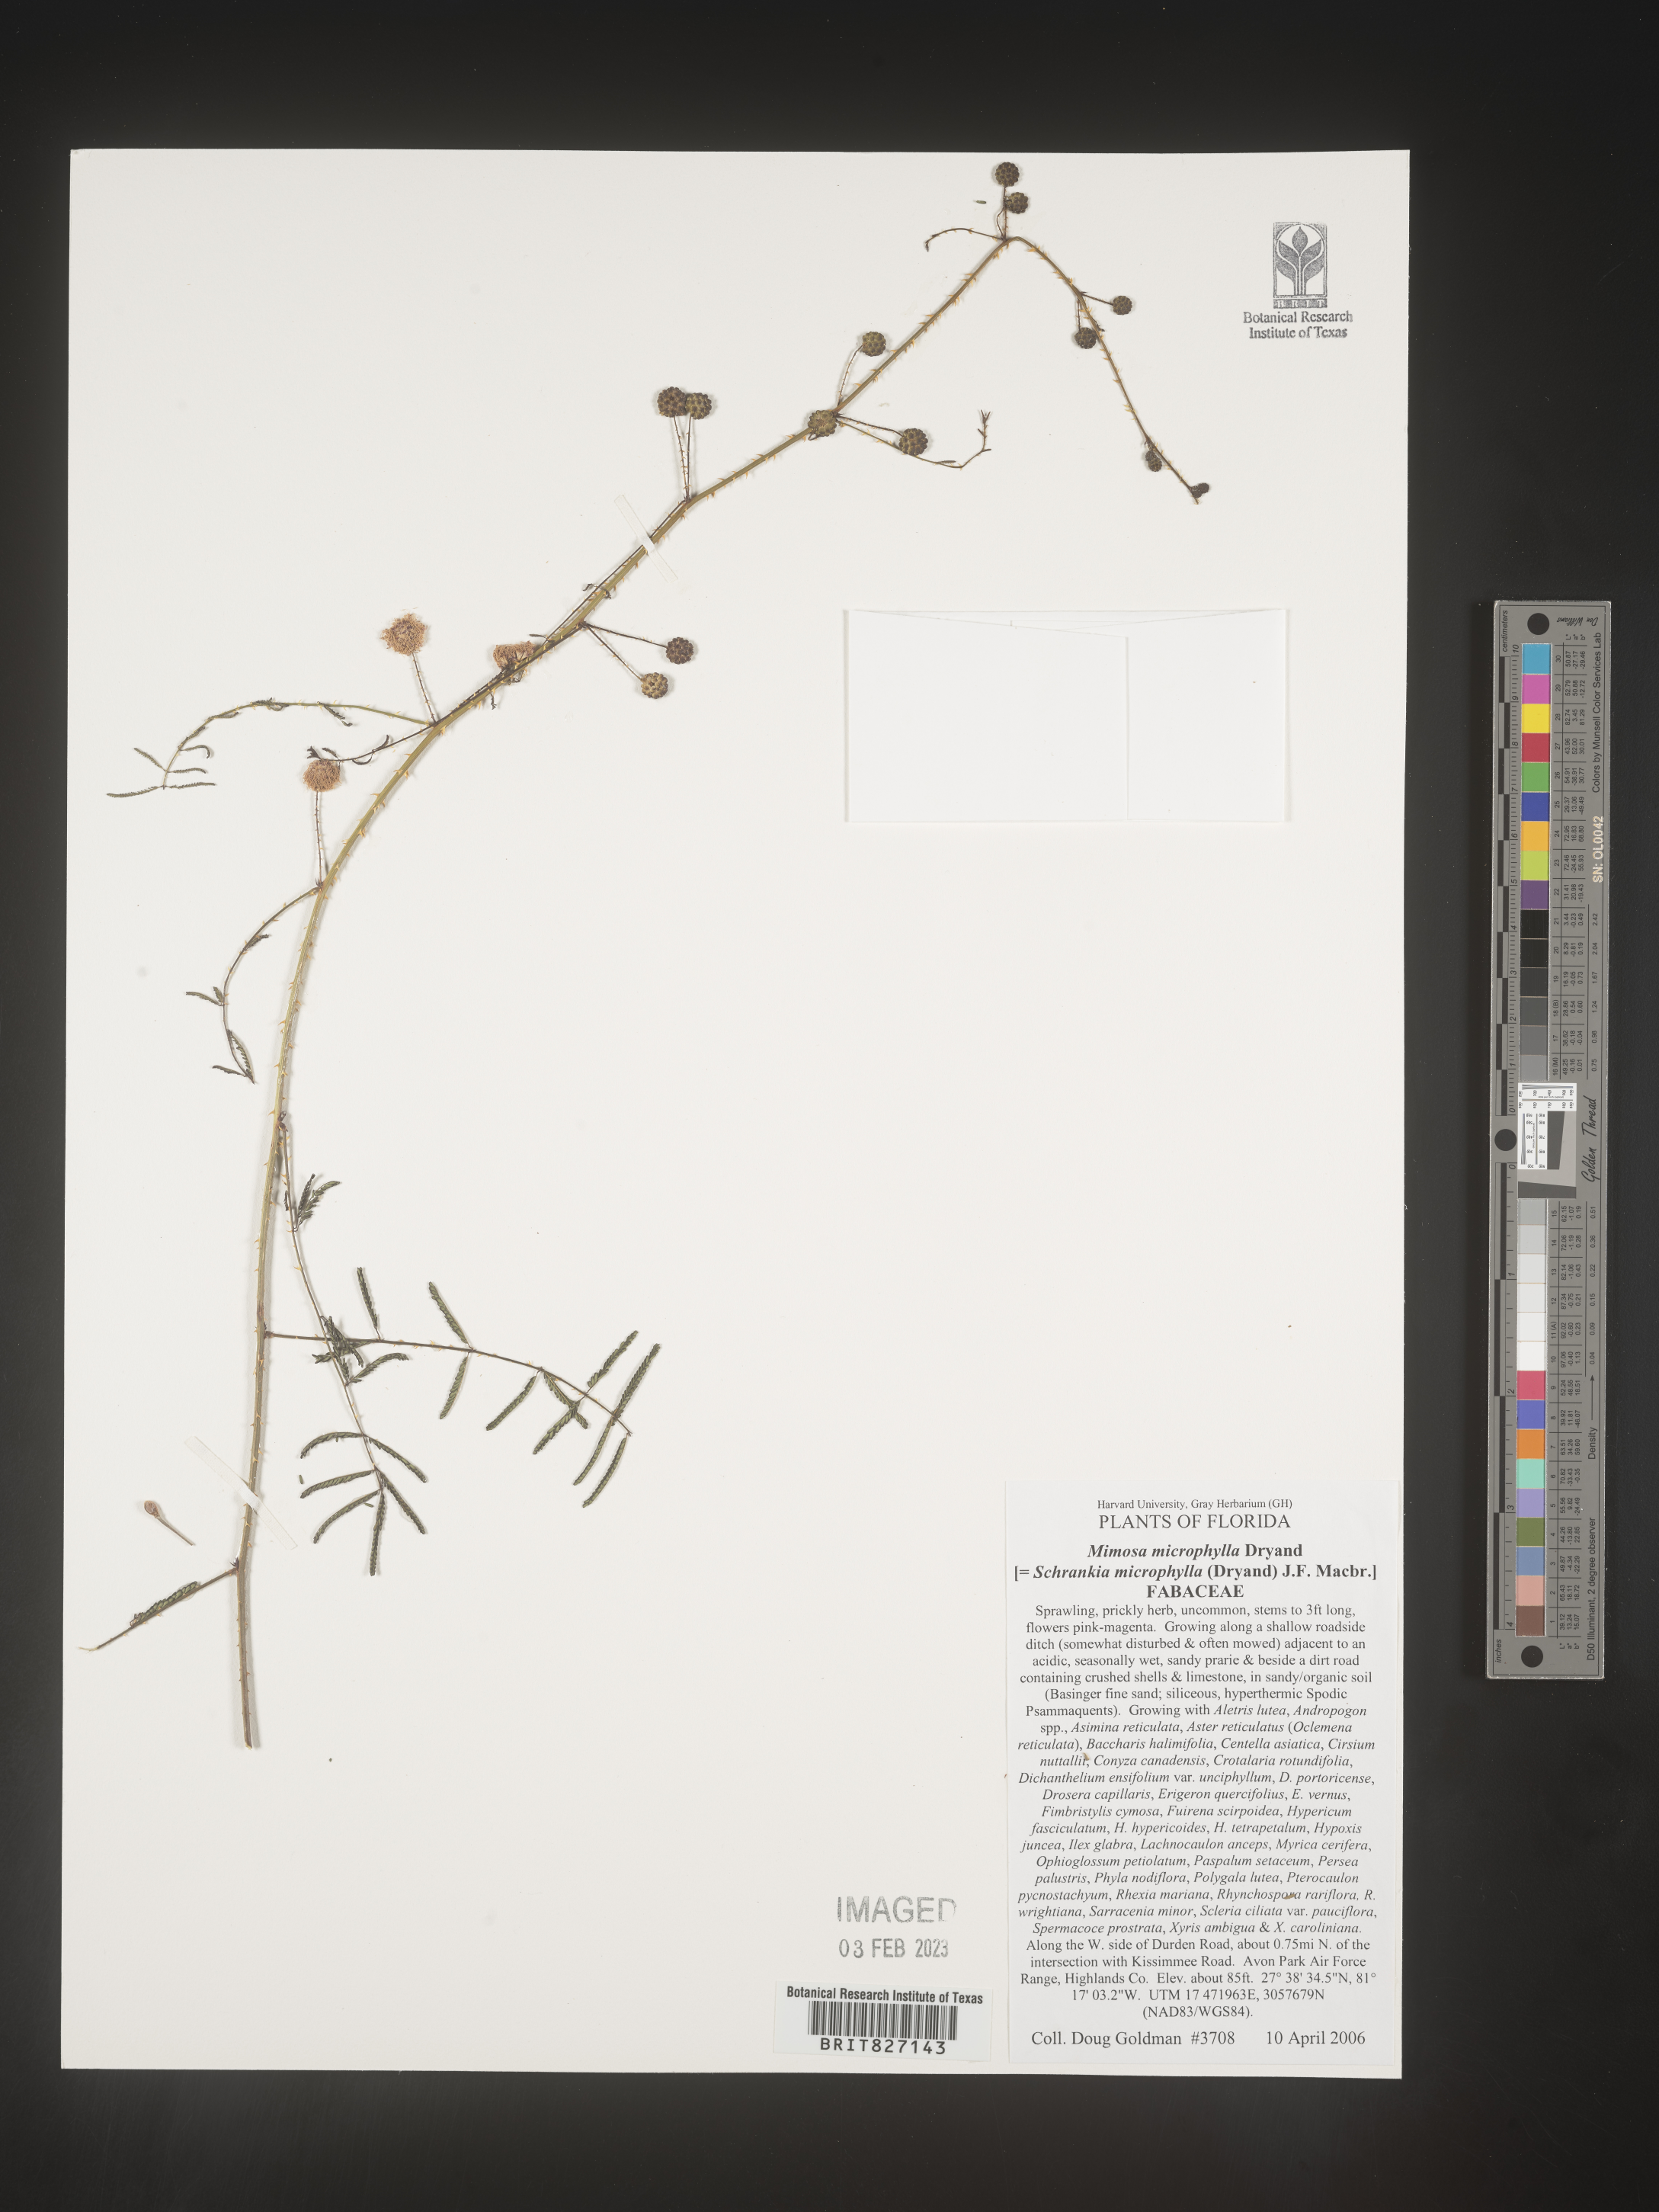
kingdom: Plantae
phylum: Tracheophyta
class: Magnoliopsida
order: Fabales
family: Fabaceae
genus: Mimosa
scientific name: Mimosa quadrivalvis
